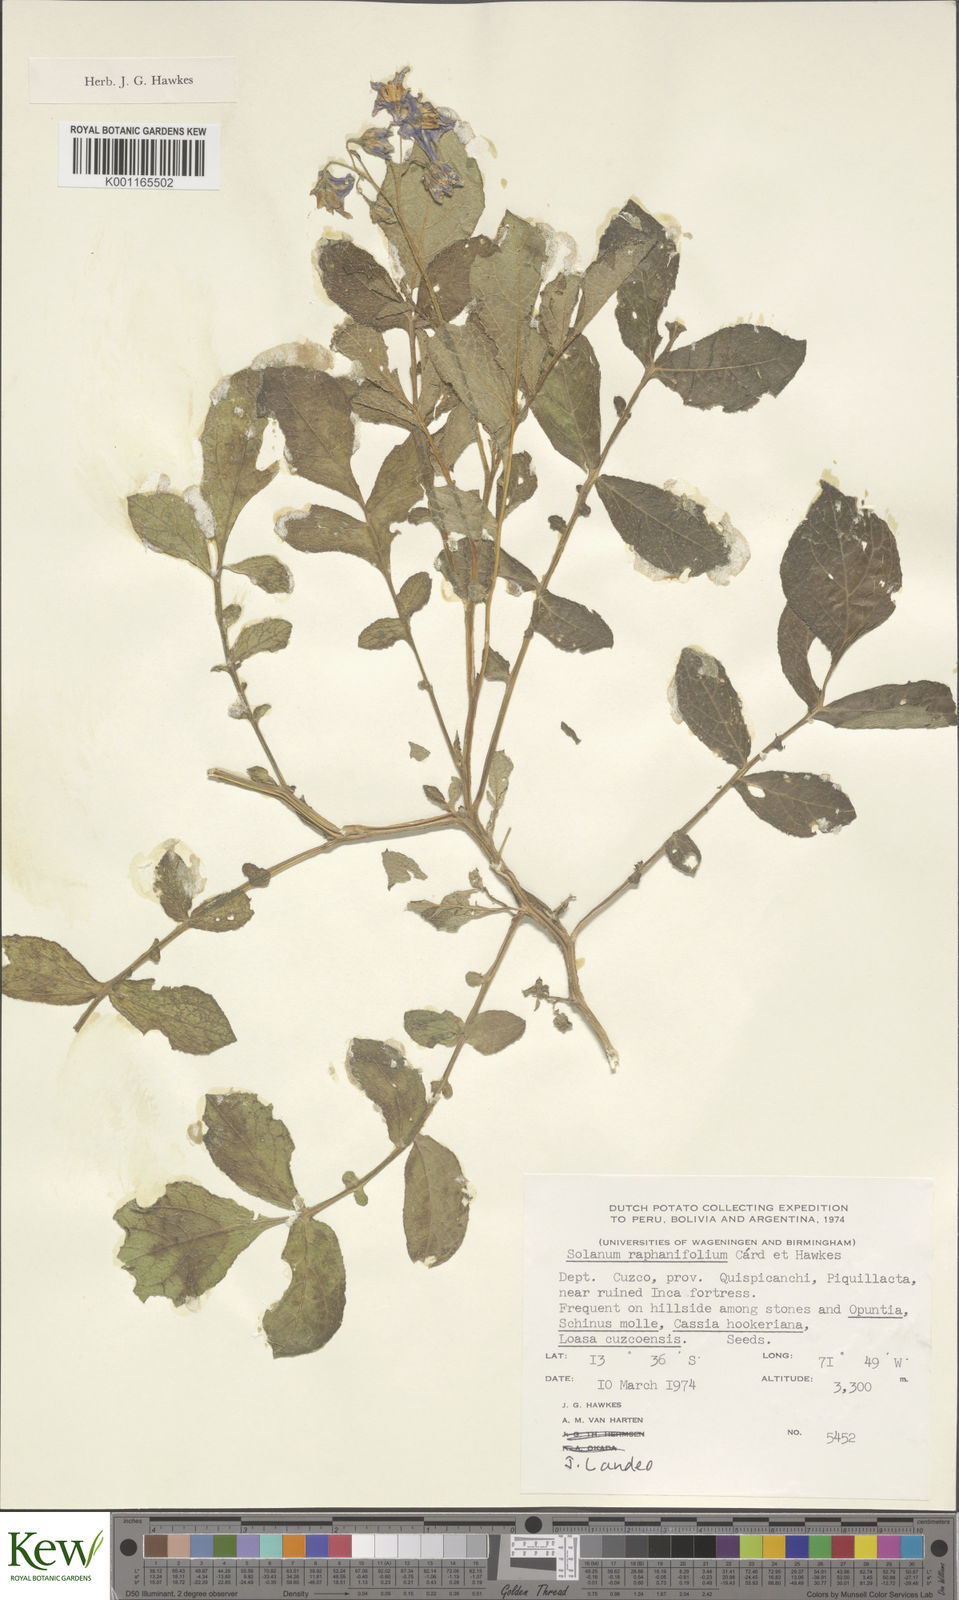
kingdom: Plantae
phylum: Tracheophyta
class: Magnoliopsida
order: Solanales
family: Solanaceae
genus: Solanum
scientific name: Solanum raphanifolium
